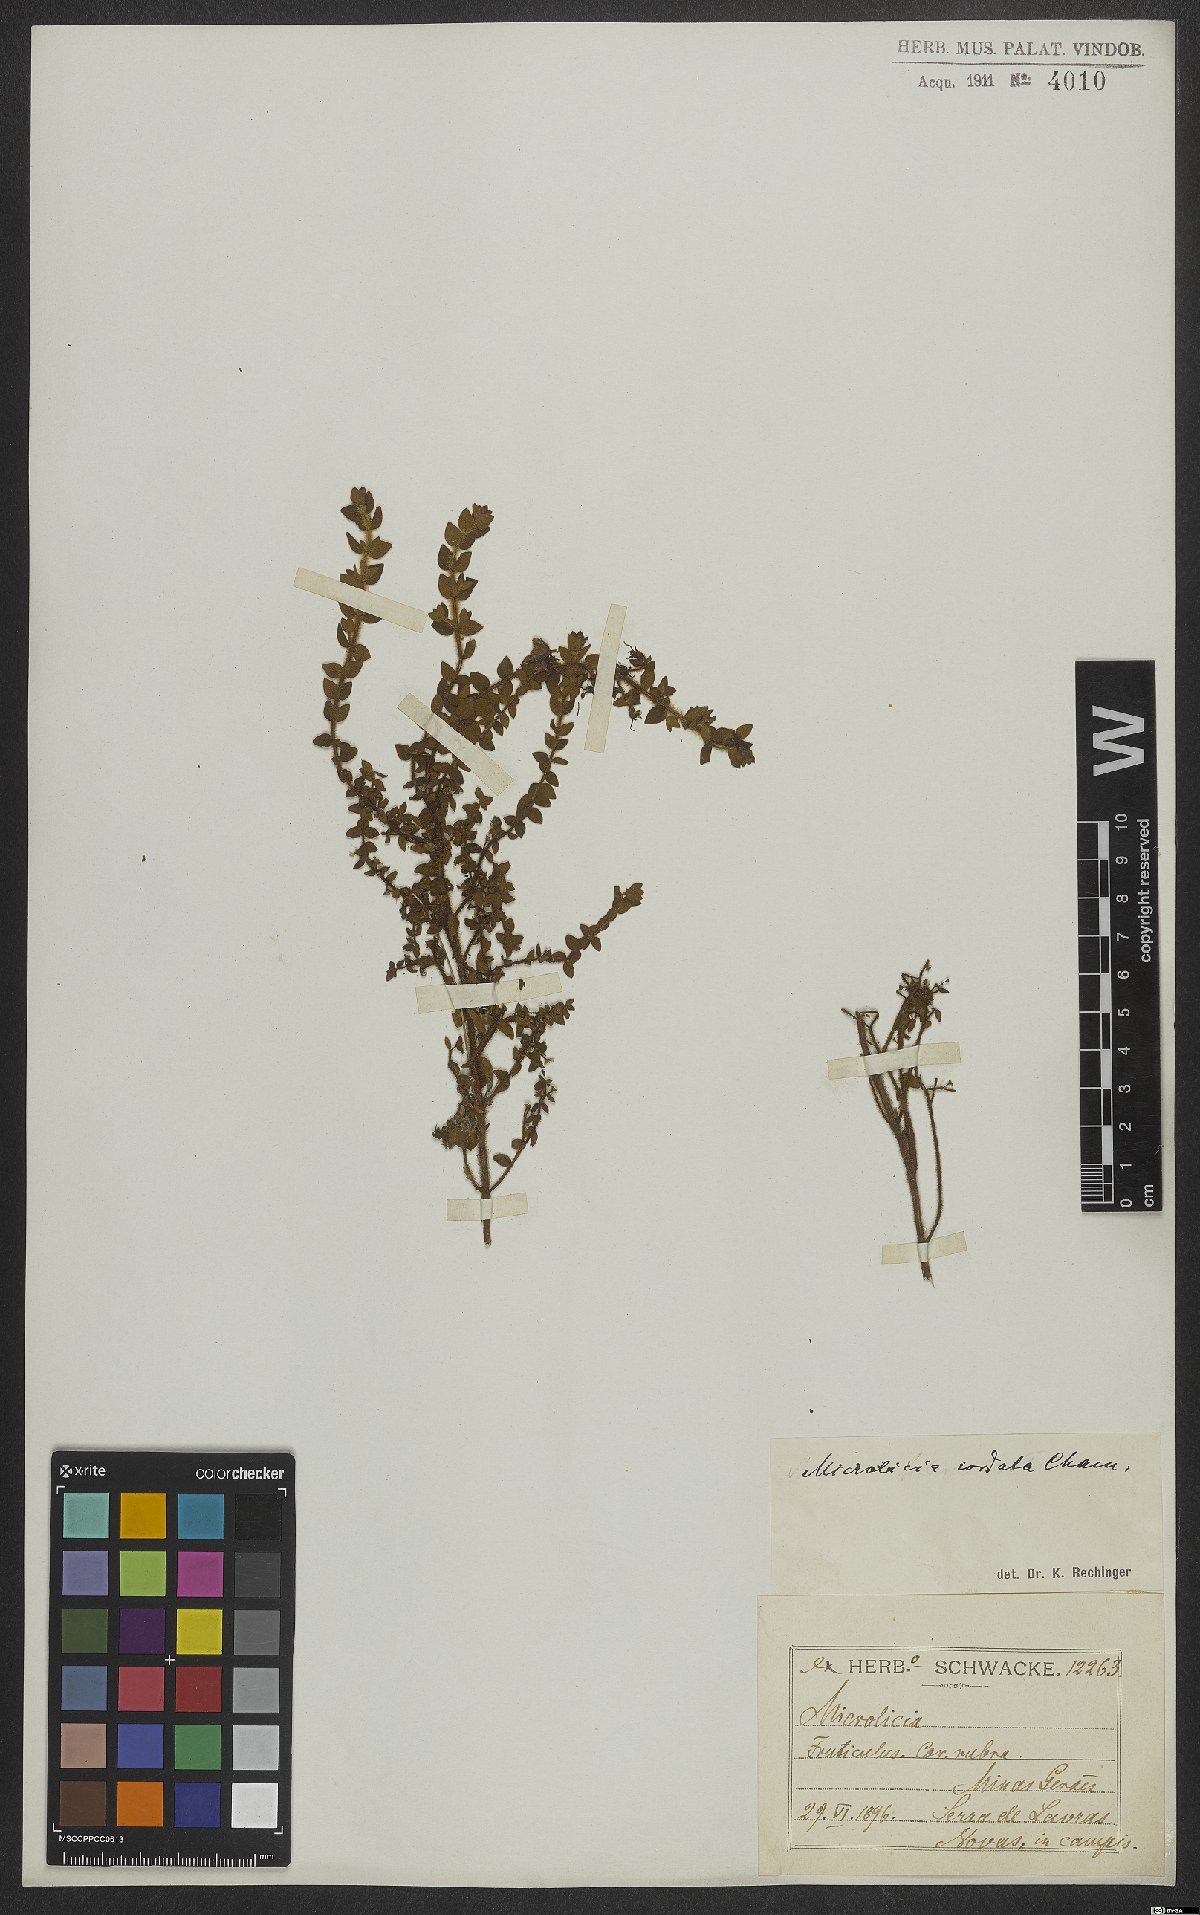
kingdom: Plantae
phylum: Tracheophyta
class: Magnoliopsida
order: Myrtales
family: Melastomataceae
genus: Microlicia
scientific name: Microlicia cordata
